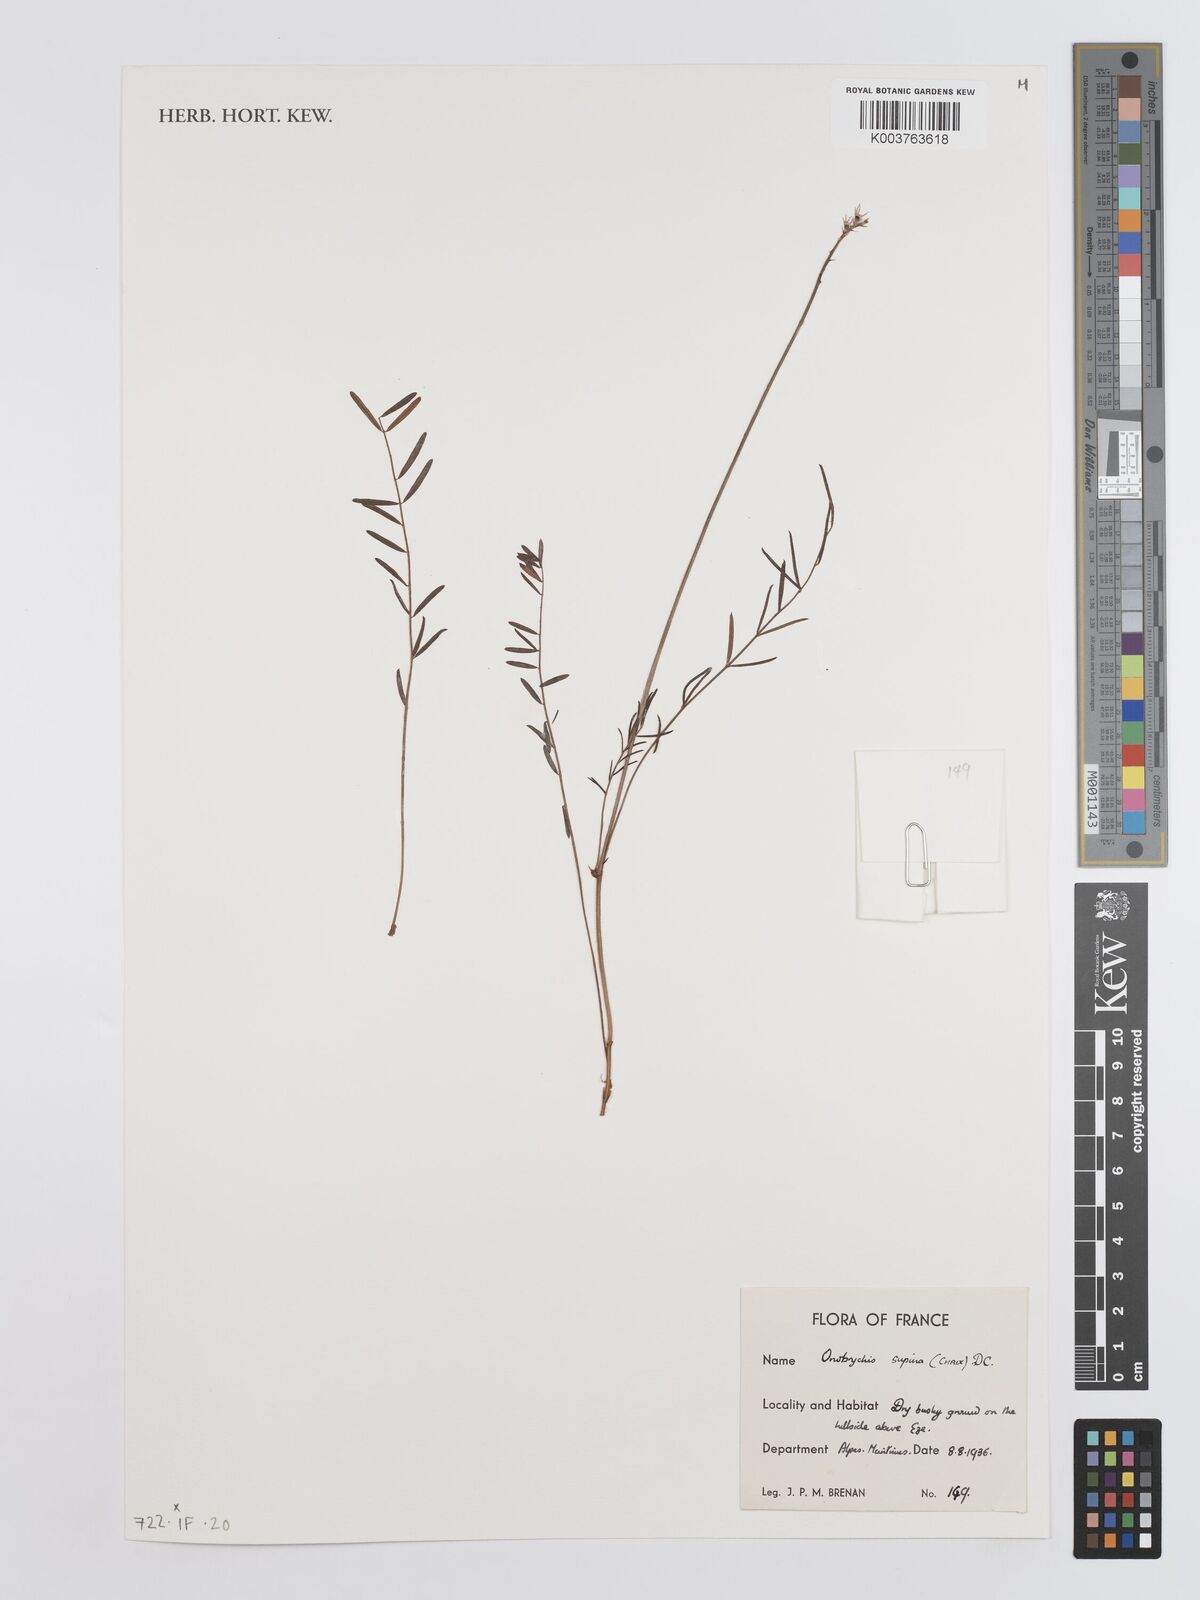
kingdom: Plantae
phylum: Tracheophyta
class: Magnoliopsida
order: Fabales
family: Fabaceae
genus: Onobrychis
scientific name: Onobrychis supina
